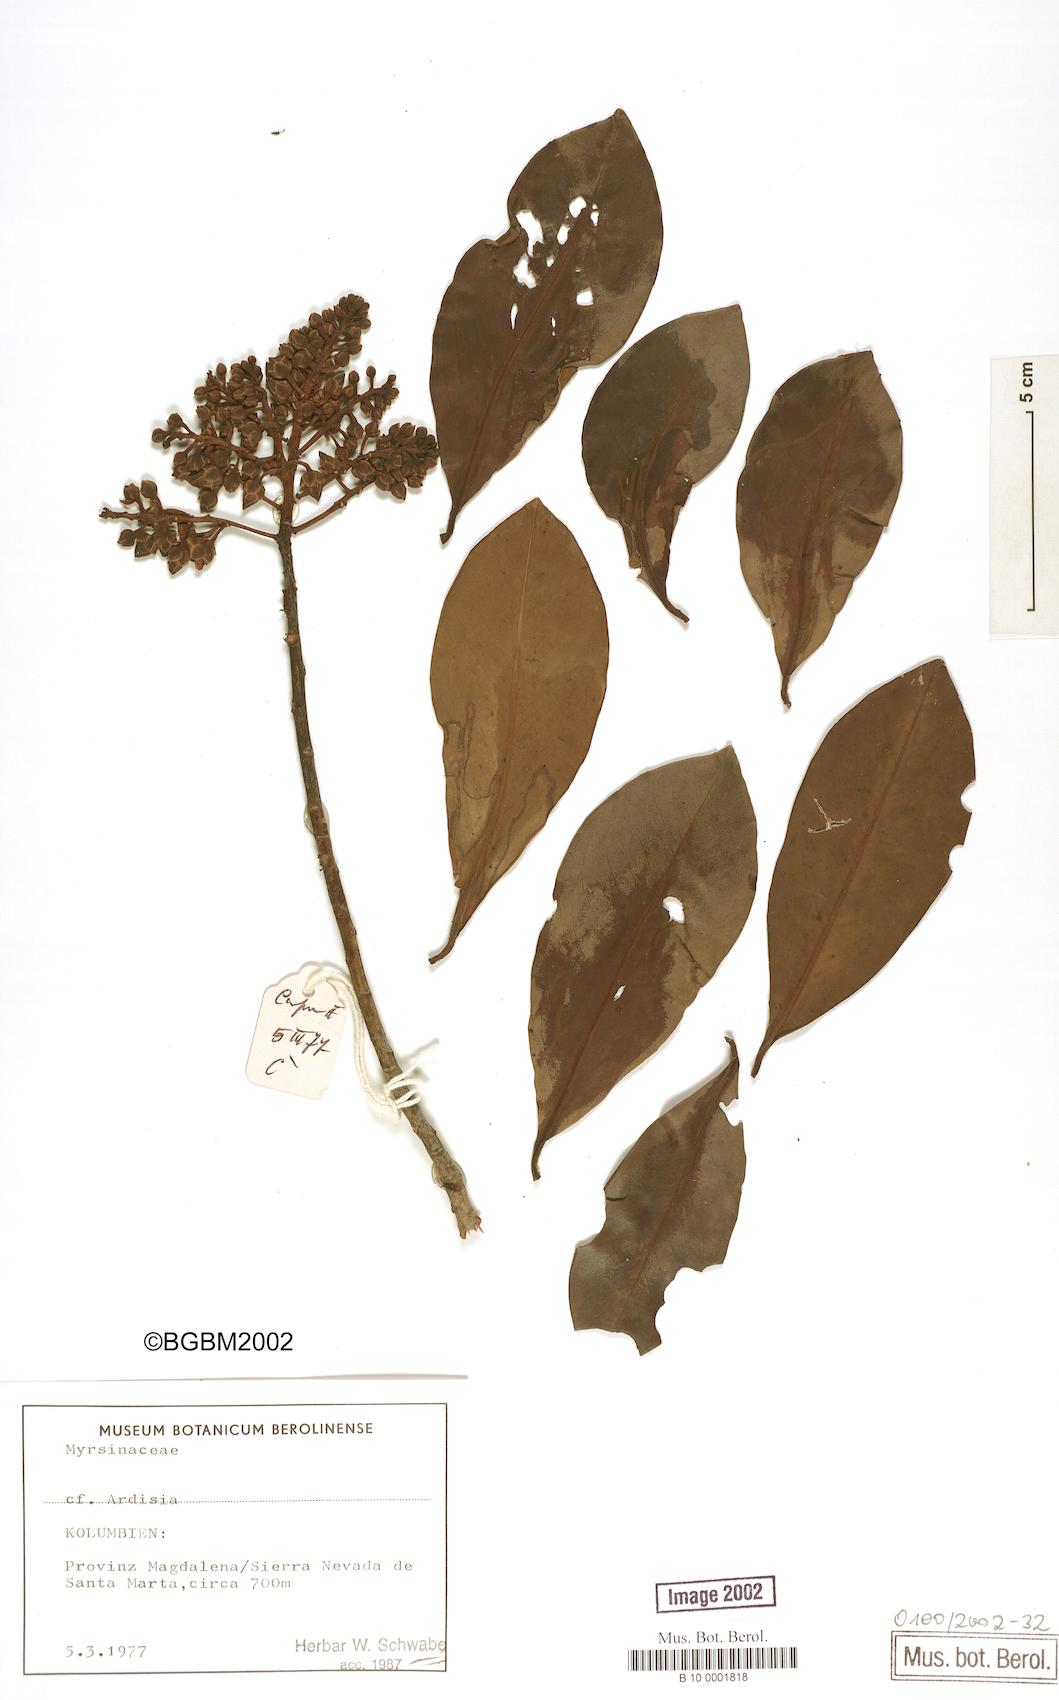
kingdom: Plantae
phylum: Tracheophyta
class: Magnoliopsida
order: Ericales
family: Primulaceae
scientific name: Primulaceae
